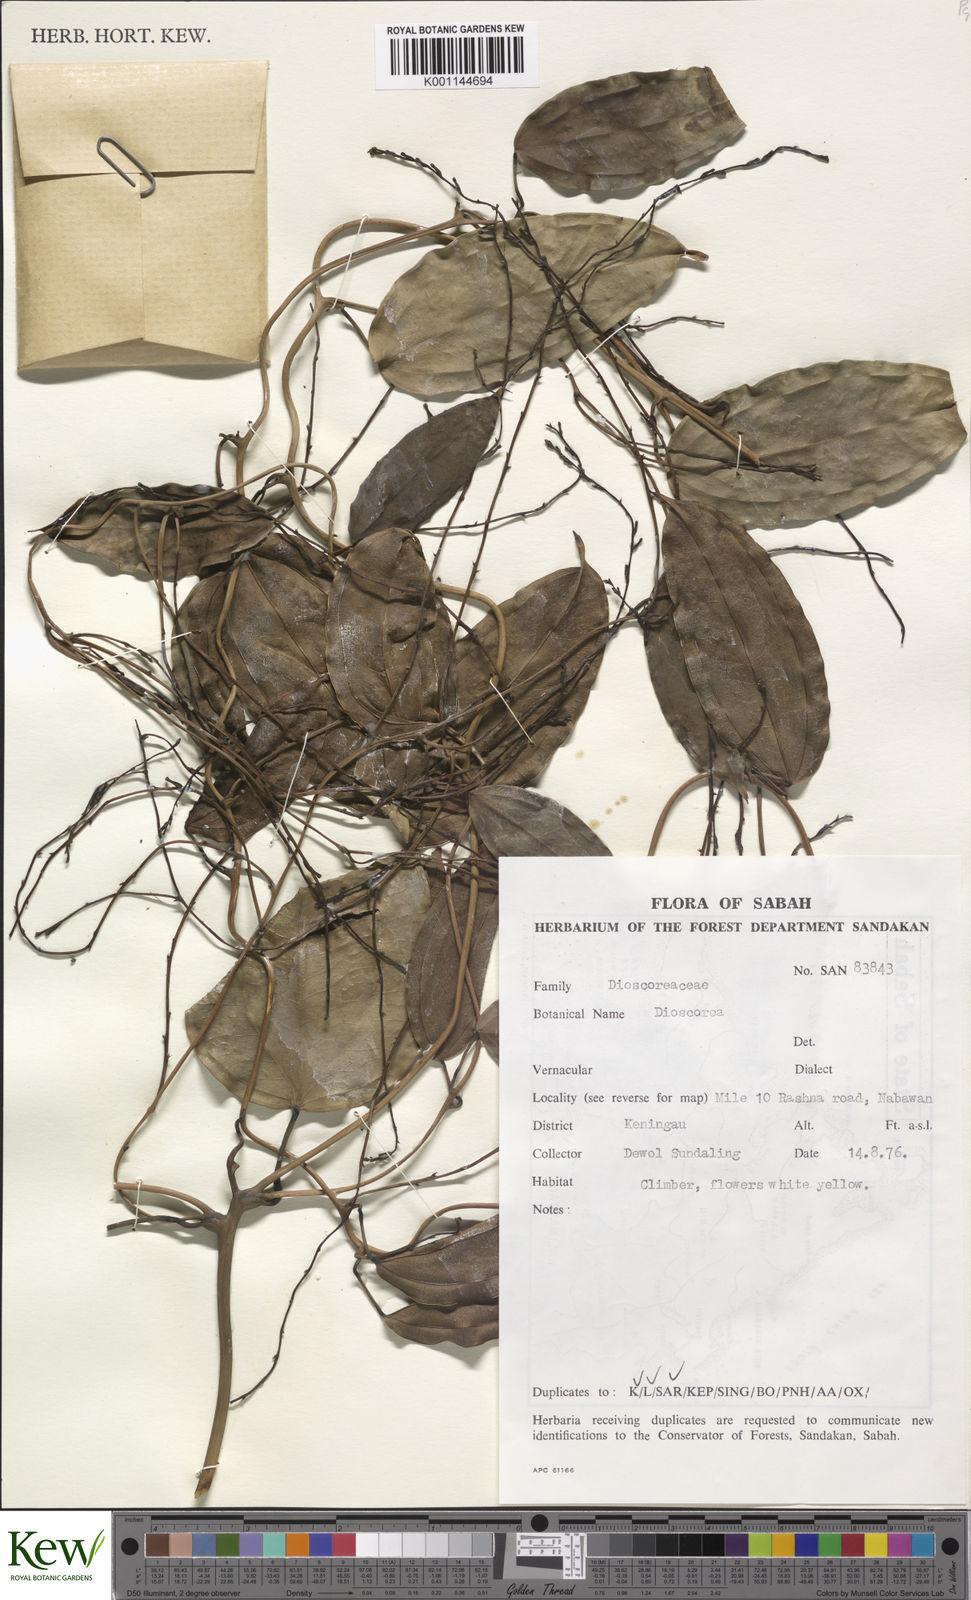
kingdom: Plantae
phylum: Tracheophyta
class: Liliopsida
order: Dioscoreales
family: Dioscoreaceae
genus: Dioscorea
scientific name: Dioscorea
